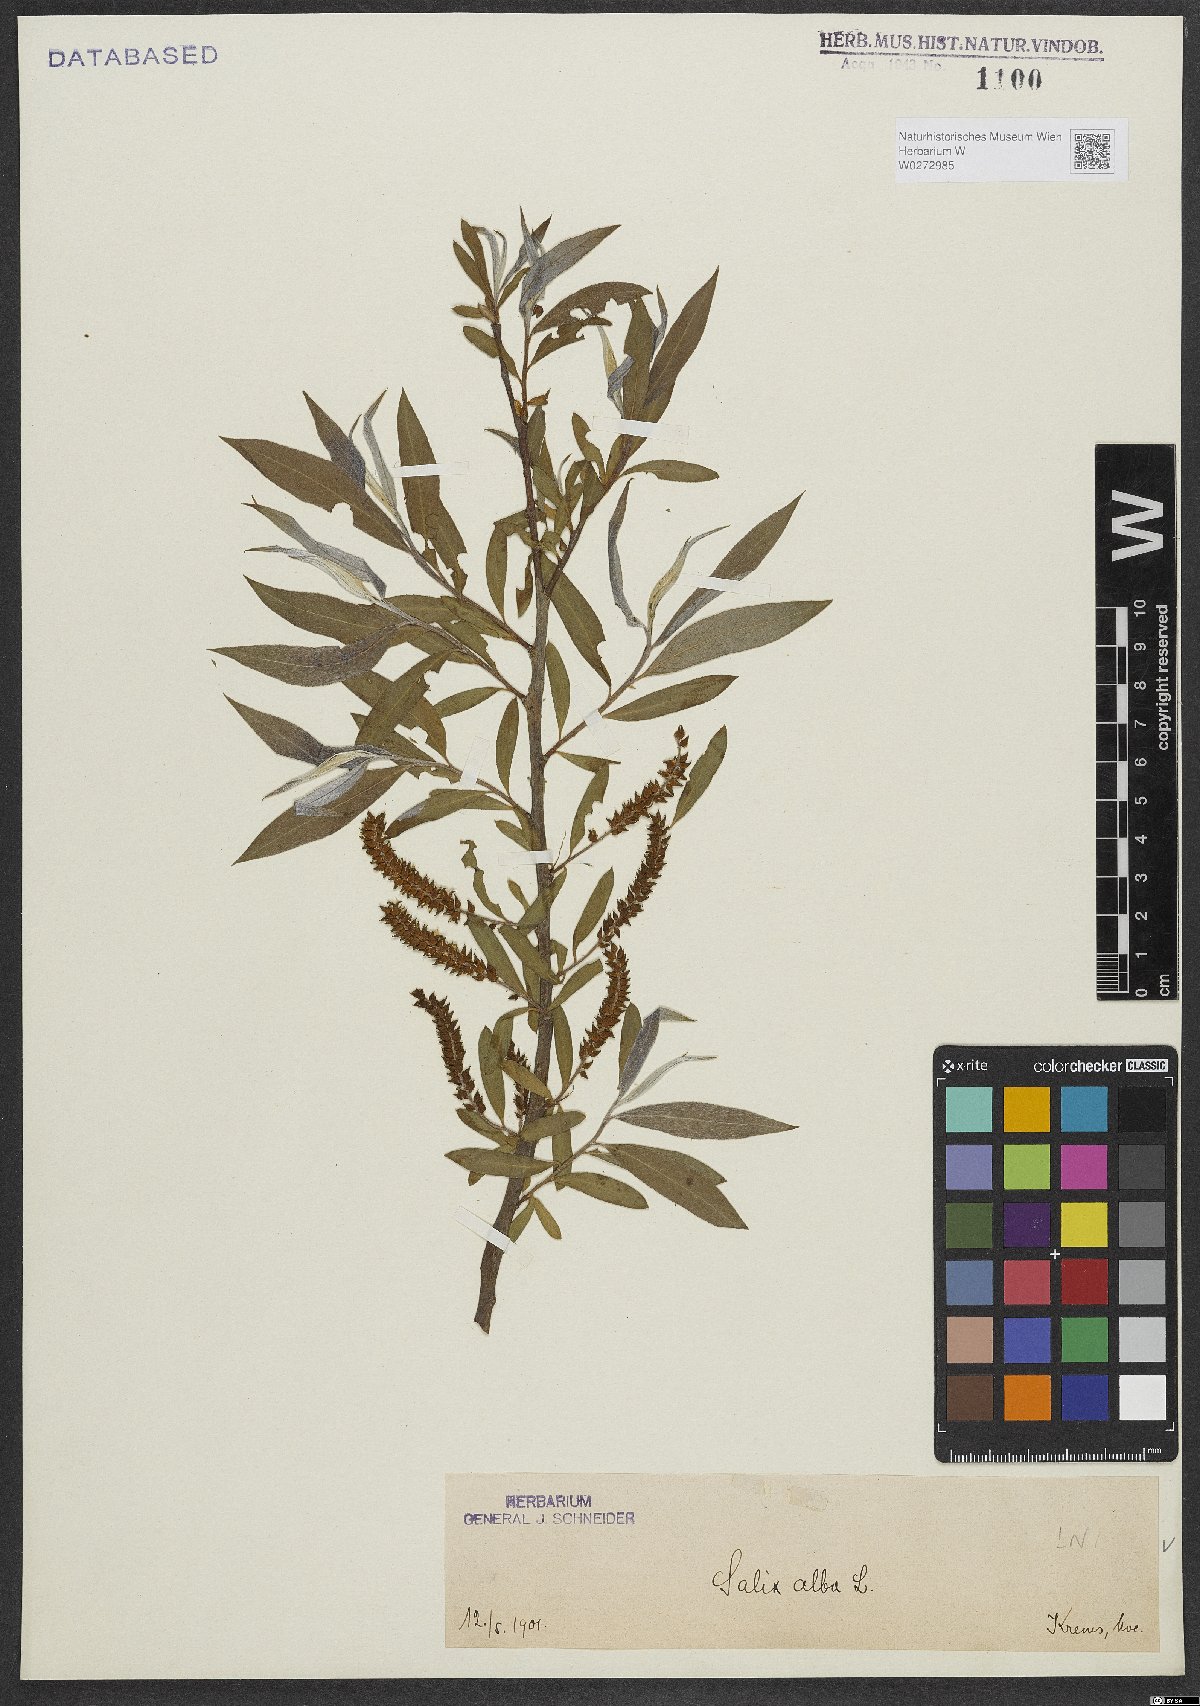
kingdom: Plantae
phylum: Tracheophyta
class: Magnoliopsida
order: Malpighiales
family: Salicaceae
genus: Salix
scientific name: Salix alba
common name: White willow
